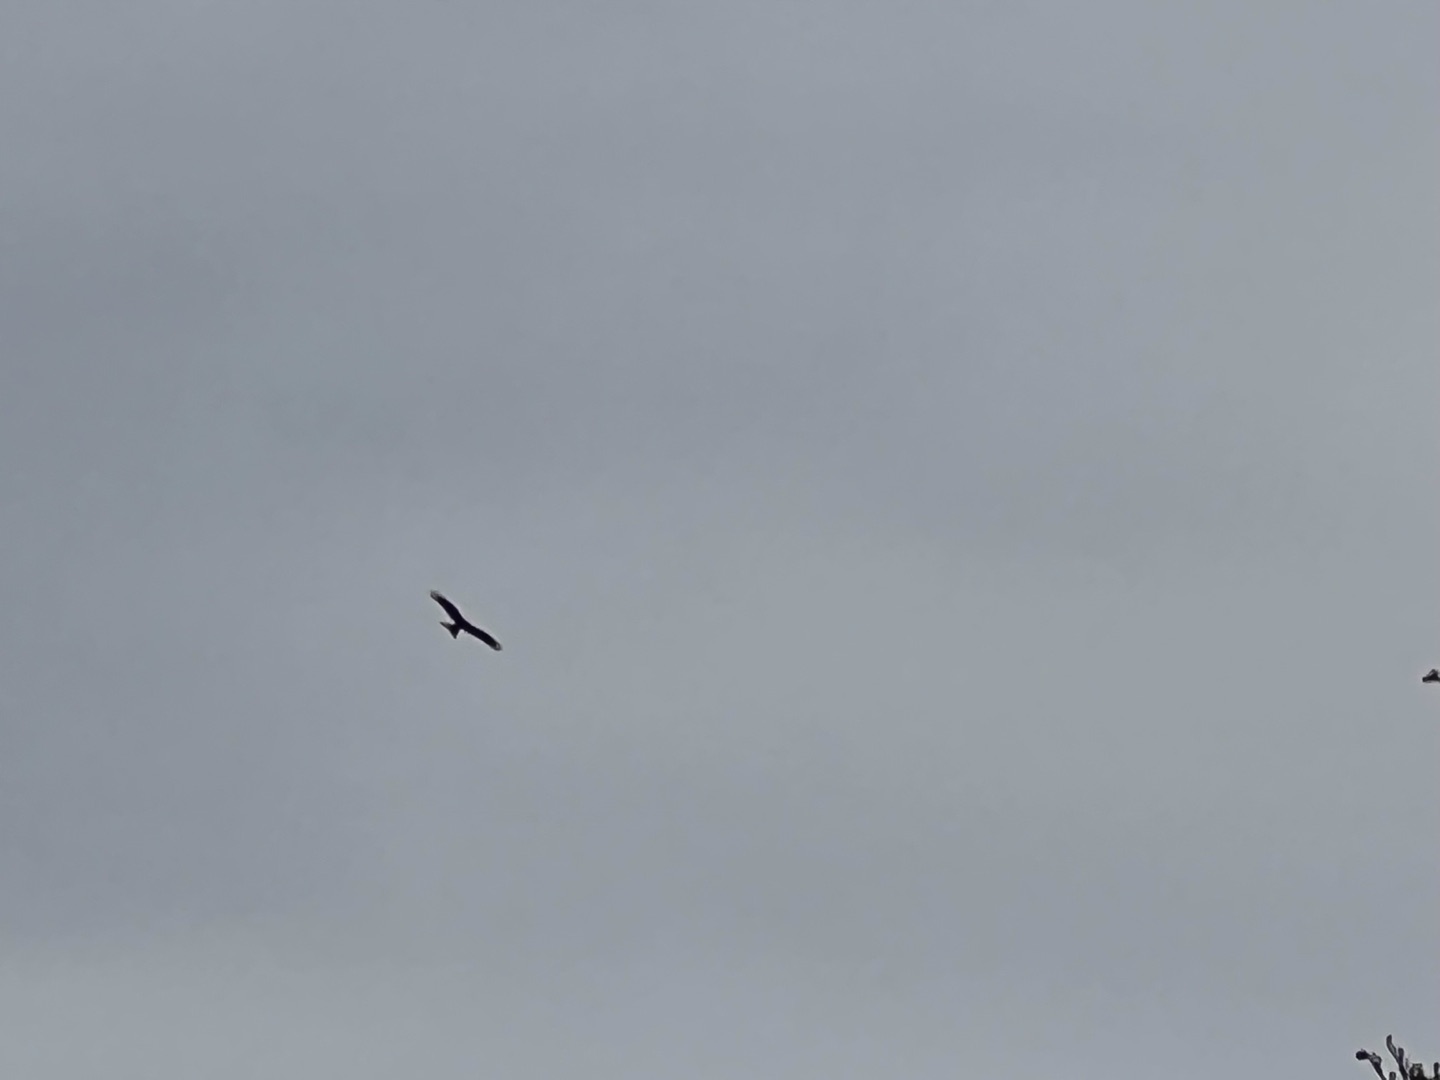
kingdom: Animalia
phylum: Chordata
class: Aves
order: Accipitriformes
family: Accipitridae
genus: Milvus
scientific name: Milvus milvus
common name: Rød glente
